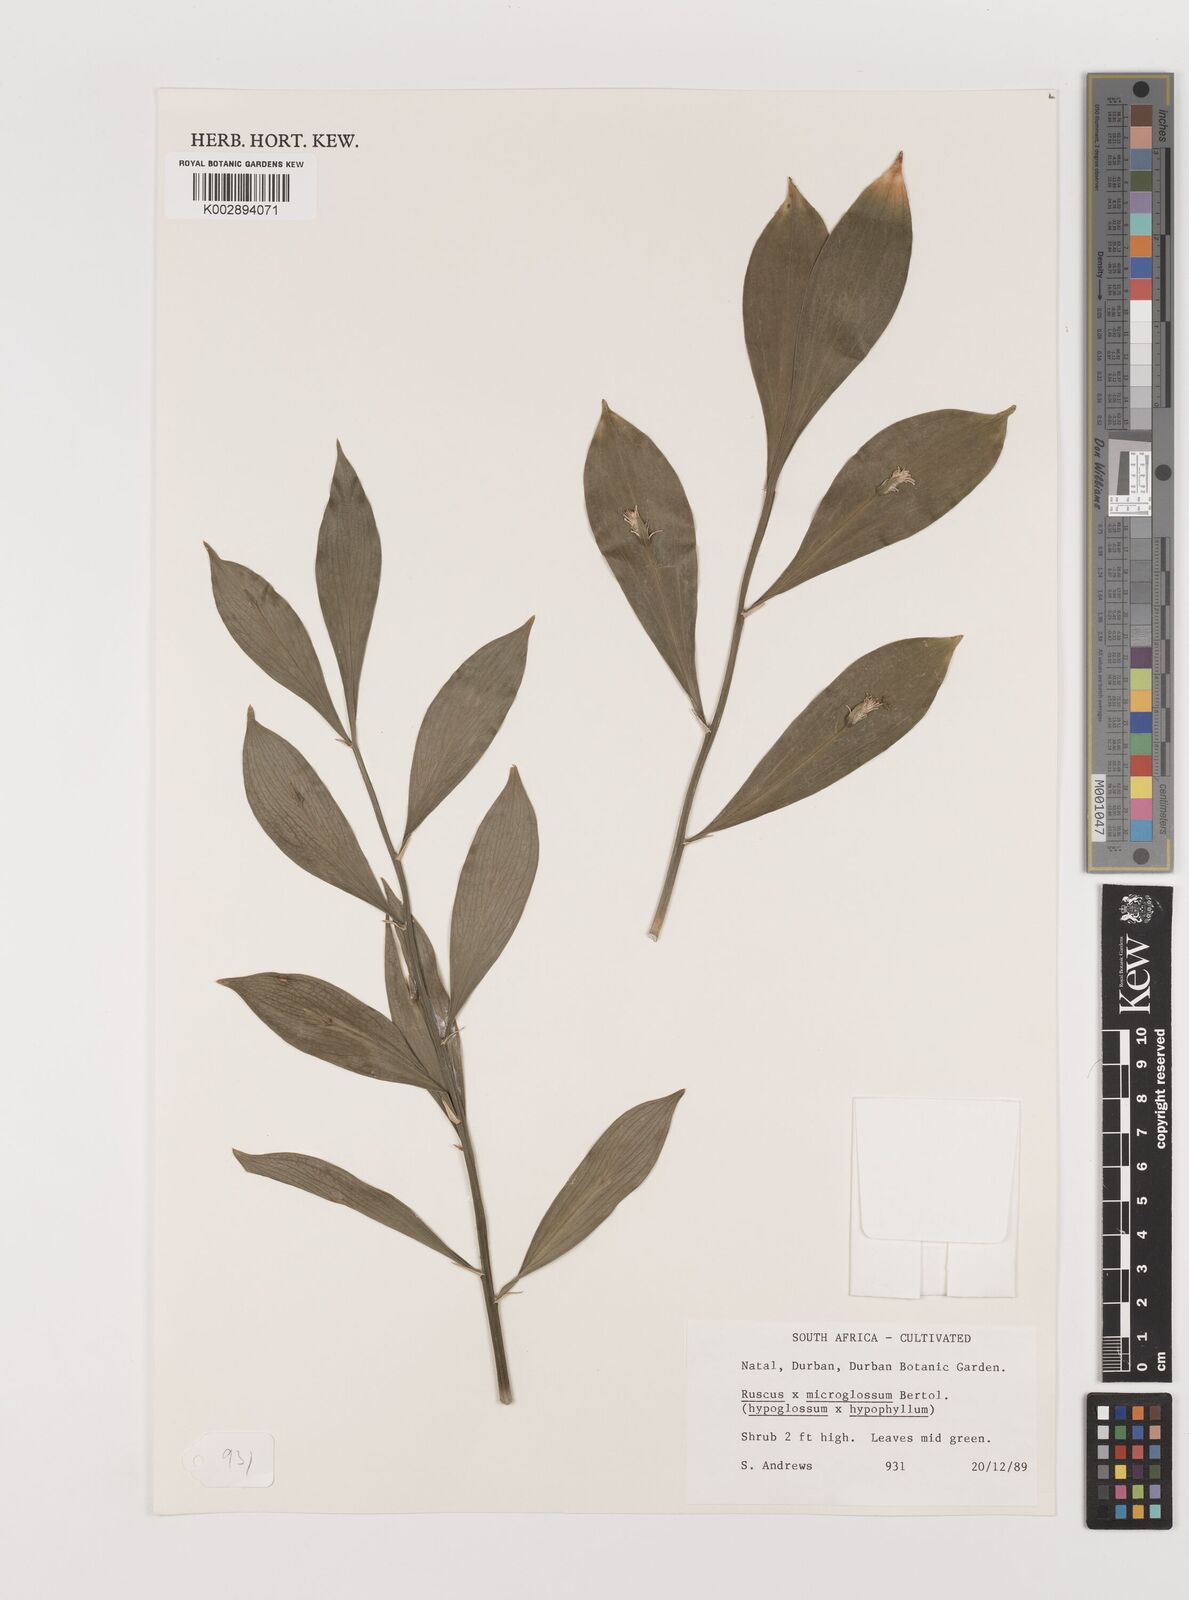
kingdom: Plantae
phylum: Tracheophyta
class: Liliopsida
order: Asparagales
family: Asparagaceae
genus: Ruscus
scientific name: Ruscus microglossus
